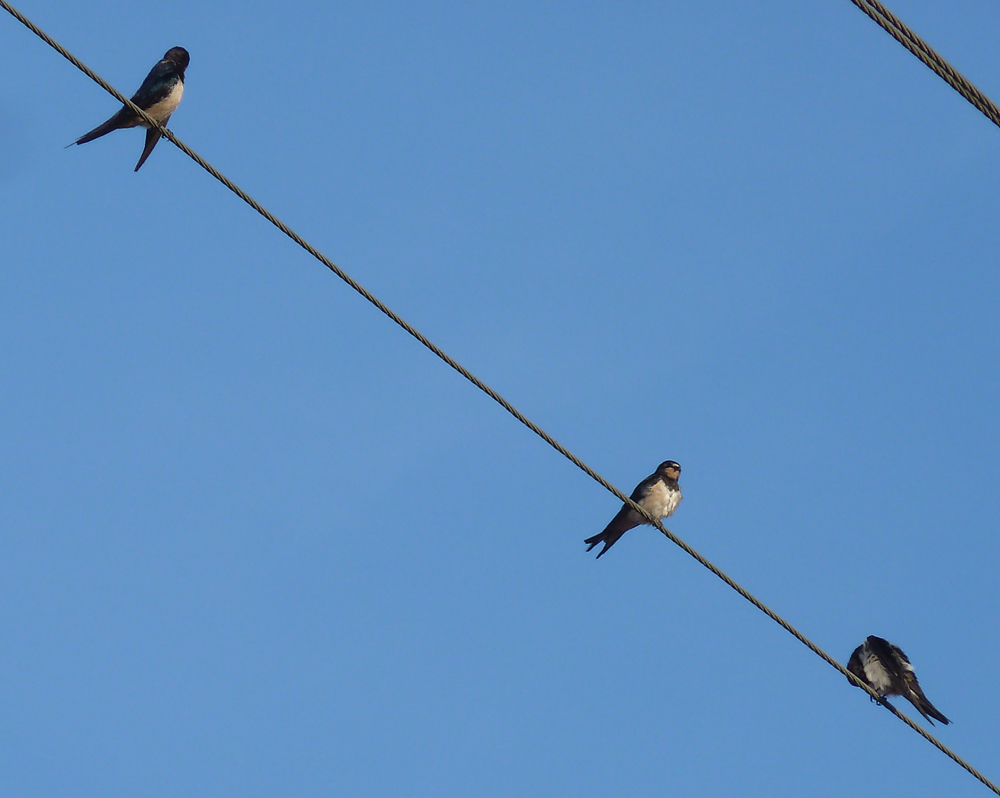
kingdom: Animalia
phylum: Chordata
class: Aves
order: Passeriformes
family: Hirundinidae
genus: Hirundo
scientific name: Hirundo rustica
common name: Barn swallow
